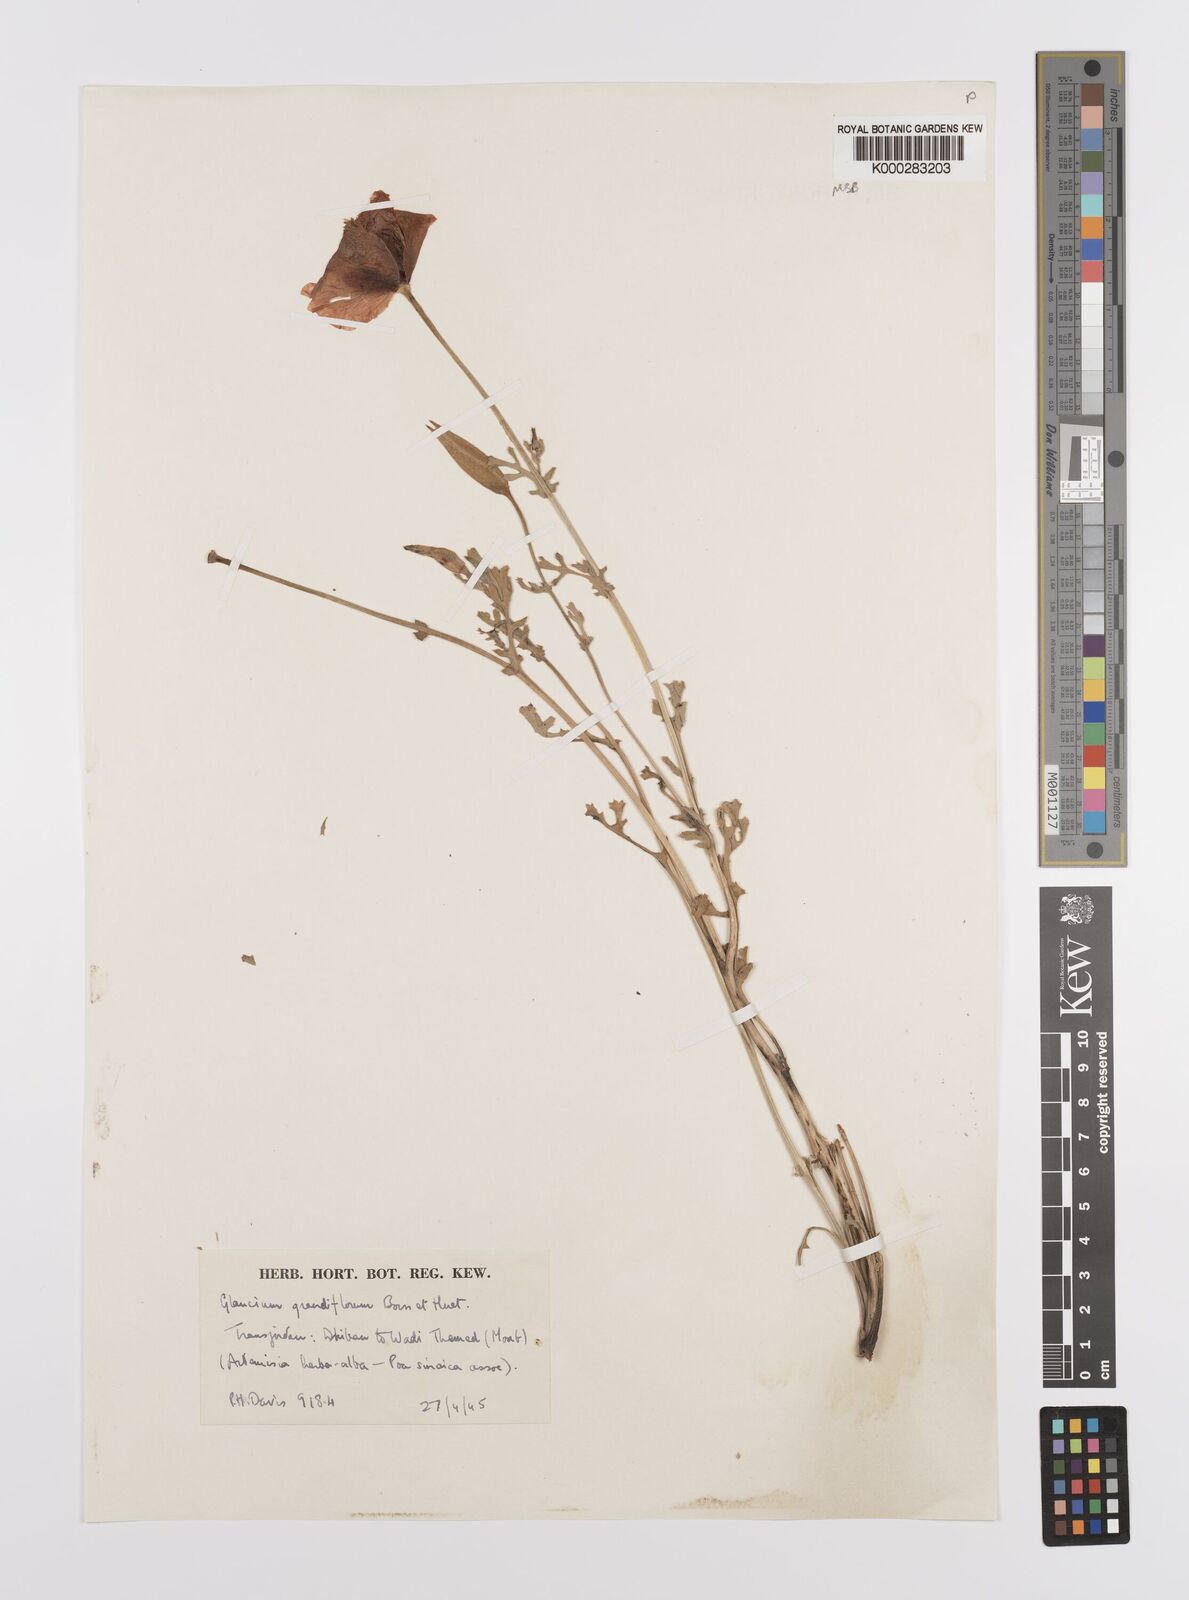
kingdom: Plantae
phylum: Tracheophyta
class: Magnoliopsida
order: Ranunculales
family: Papaveraceae
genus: Glaucium
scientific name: Glaucium grandiflorum
